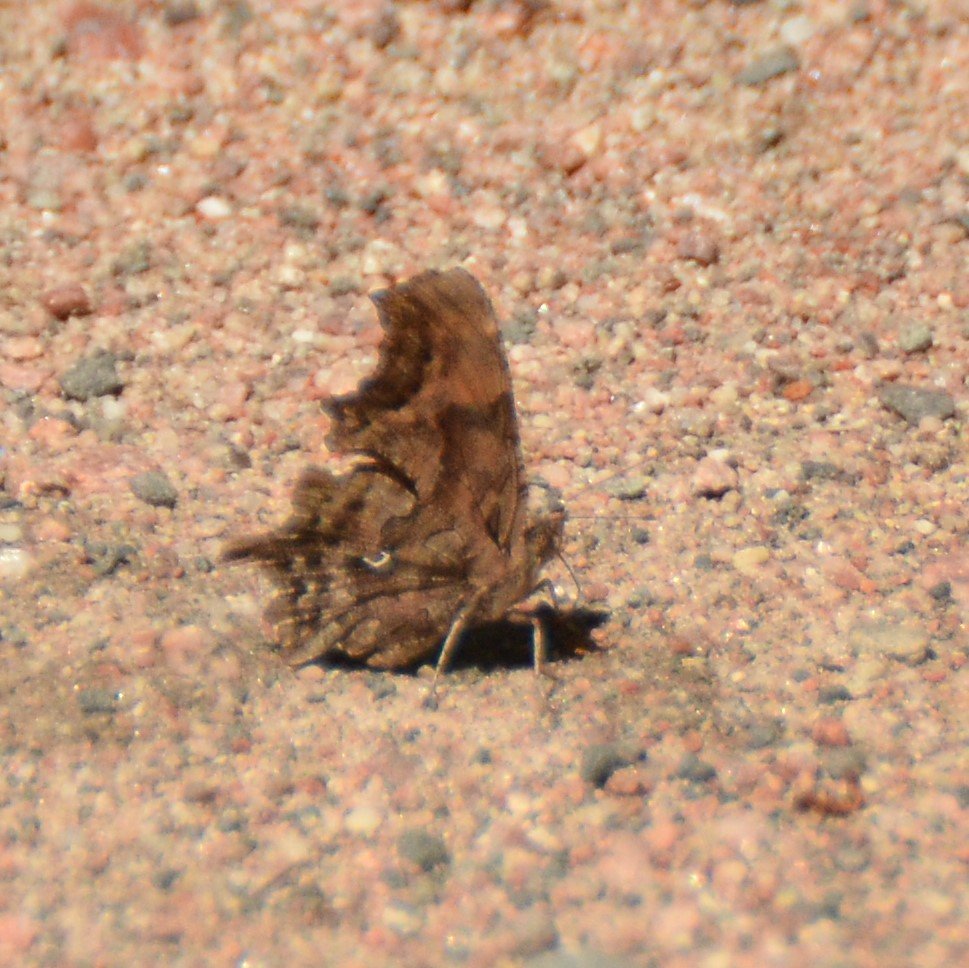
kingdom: Animalia
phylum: Arthropoda
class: Insecta
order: Lepidoptera
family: Nymphalidae
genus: Polygonia
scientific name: Polygonia faunus
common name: Green Comma
